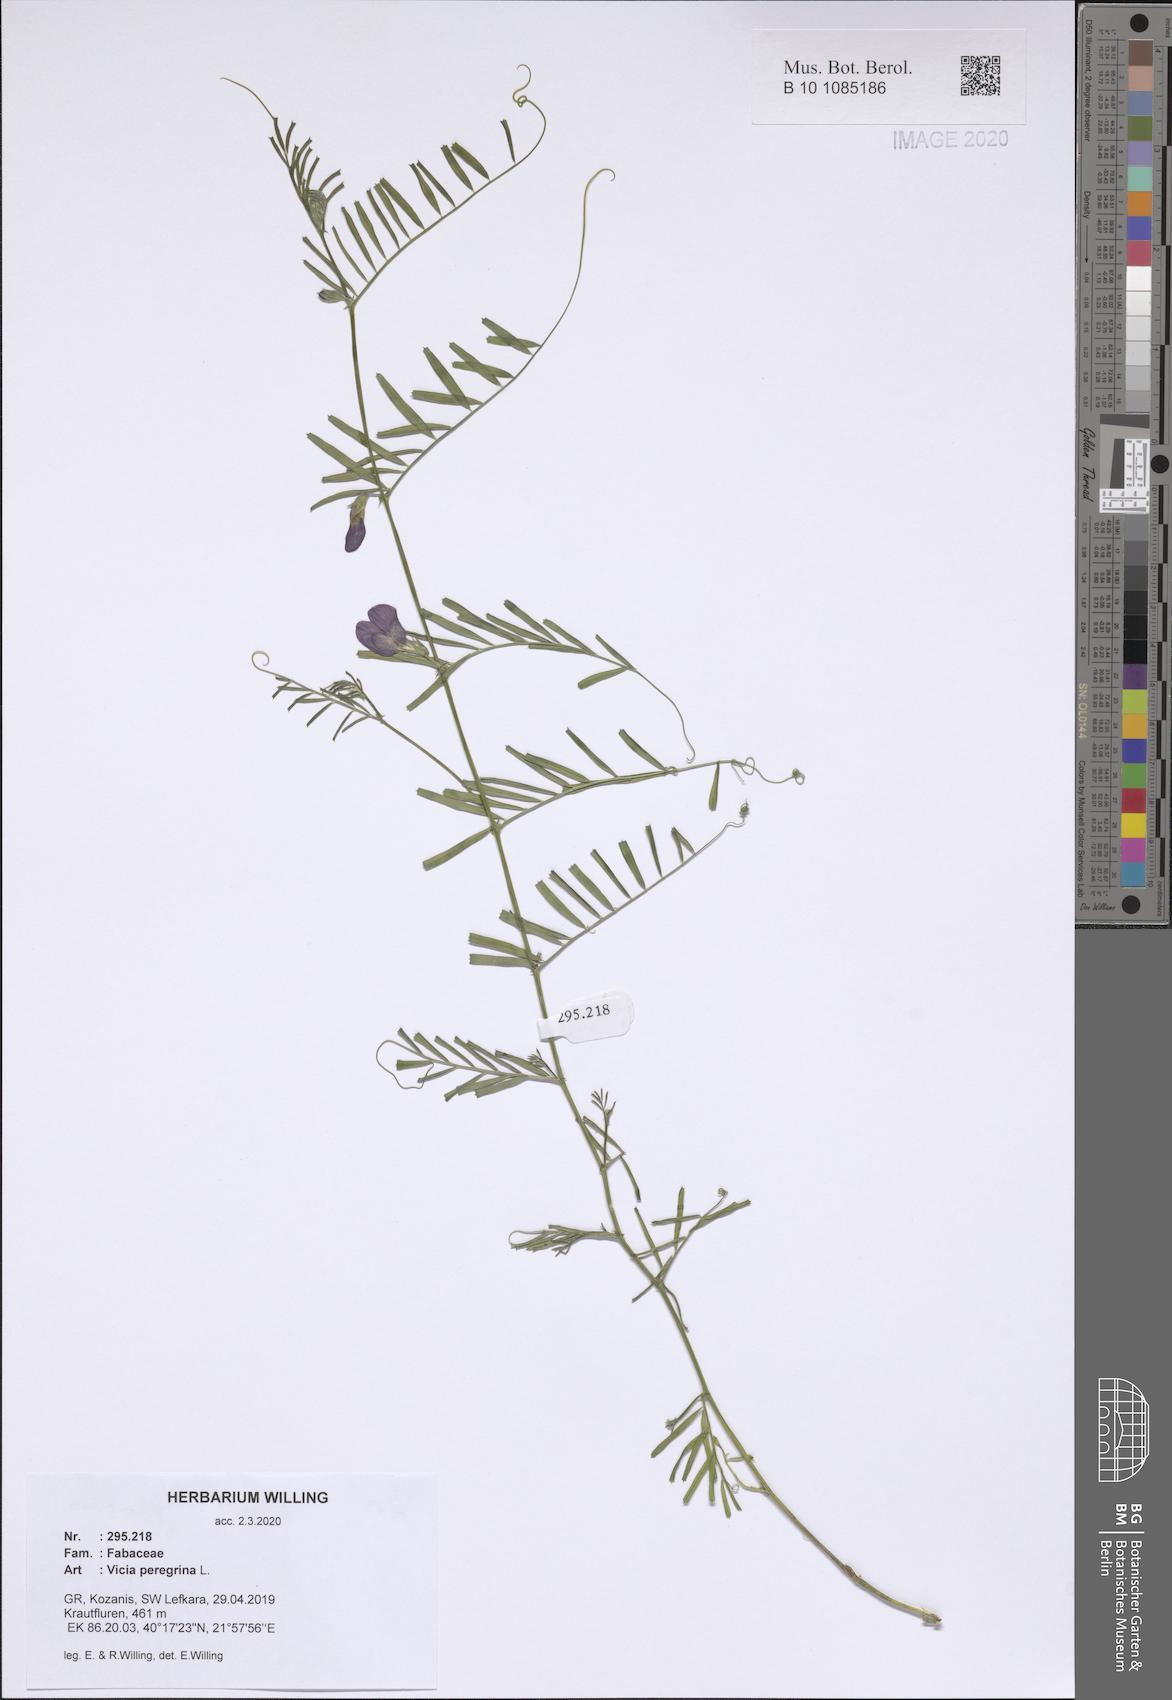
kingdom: Plantae
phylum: Tracheophyta
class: Magnoliopsida
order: Fabales
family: Fabaceae
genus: Vicia
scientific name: Vicia peregrina
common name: Broad-pod vetch
